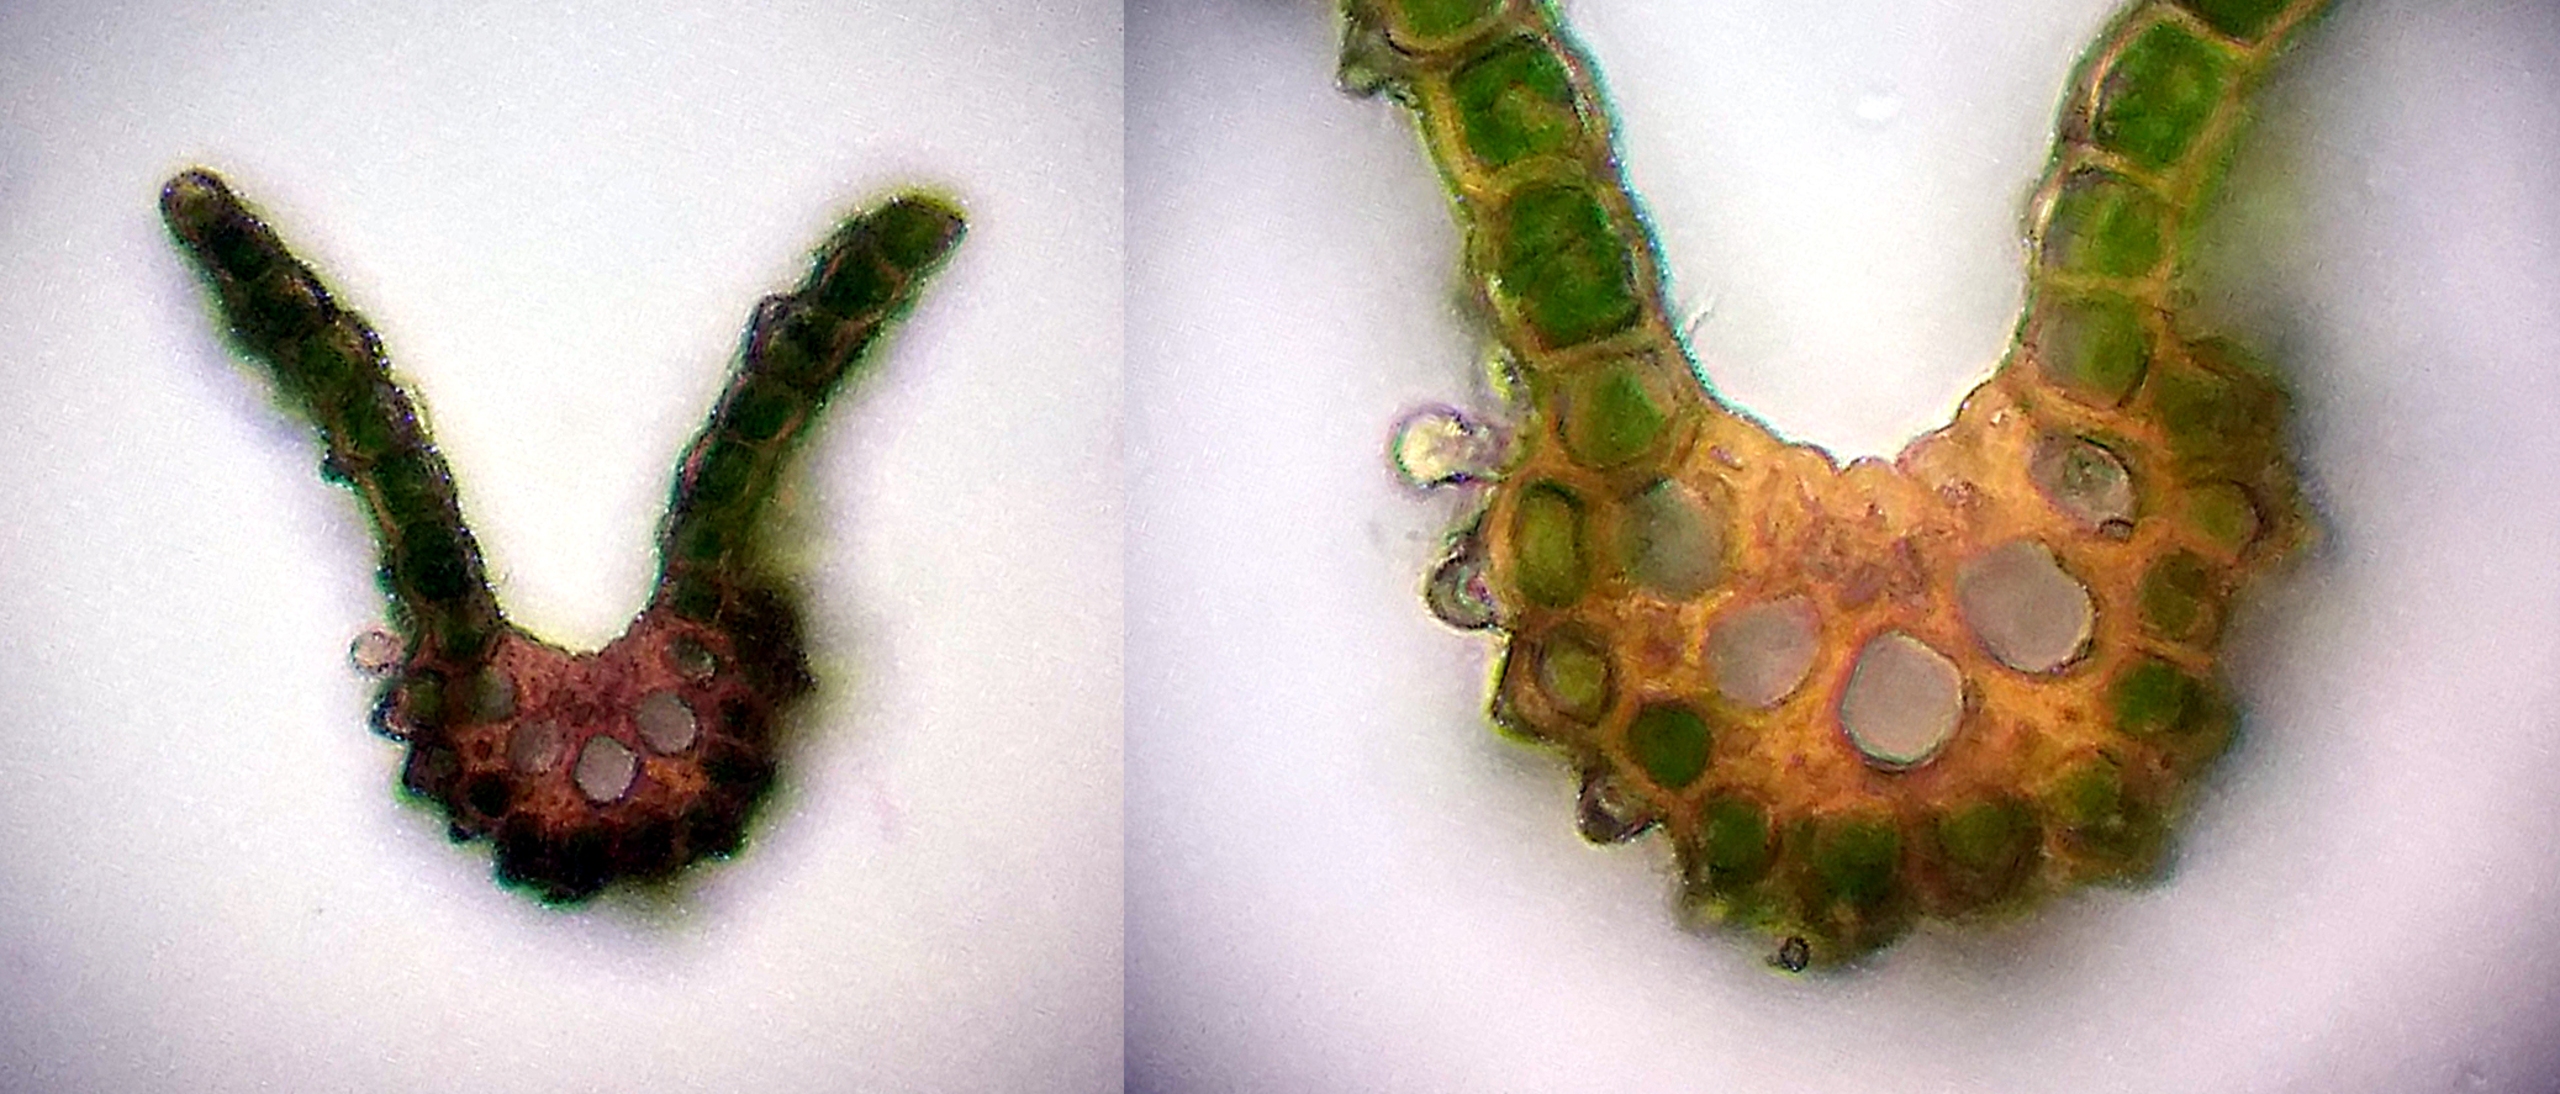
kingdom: Plantae
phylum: Bryophyta
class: Bryopsida
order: Dicranales
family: Dicranaceae
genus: Dicranum
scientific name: Dicranum fuscescens
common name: Mørk kløvtand
